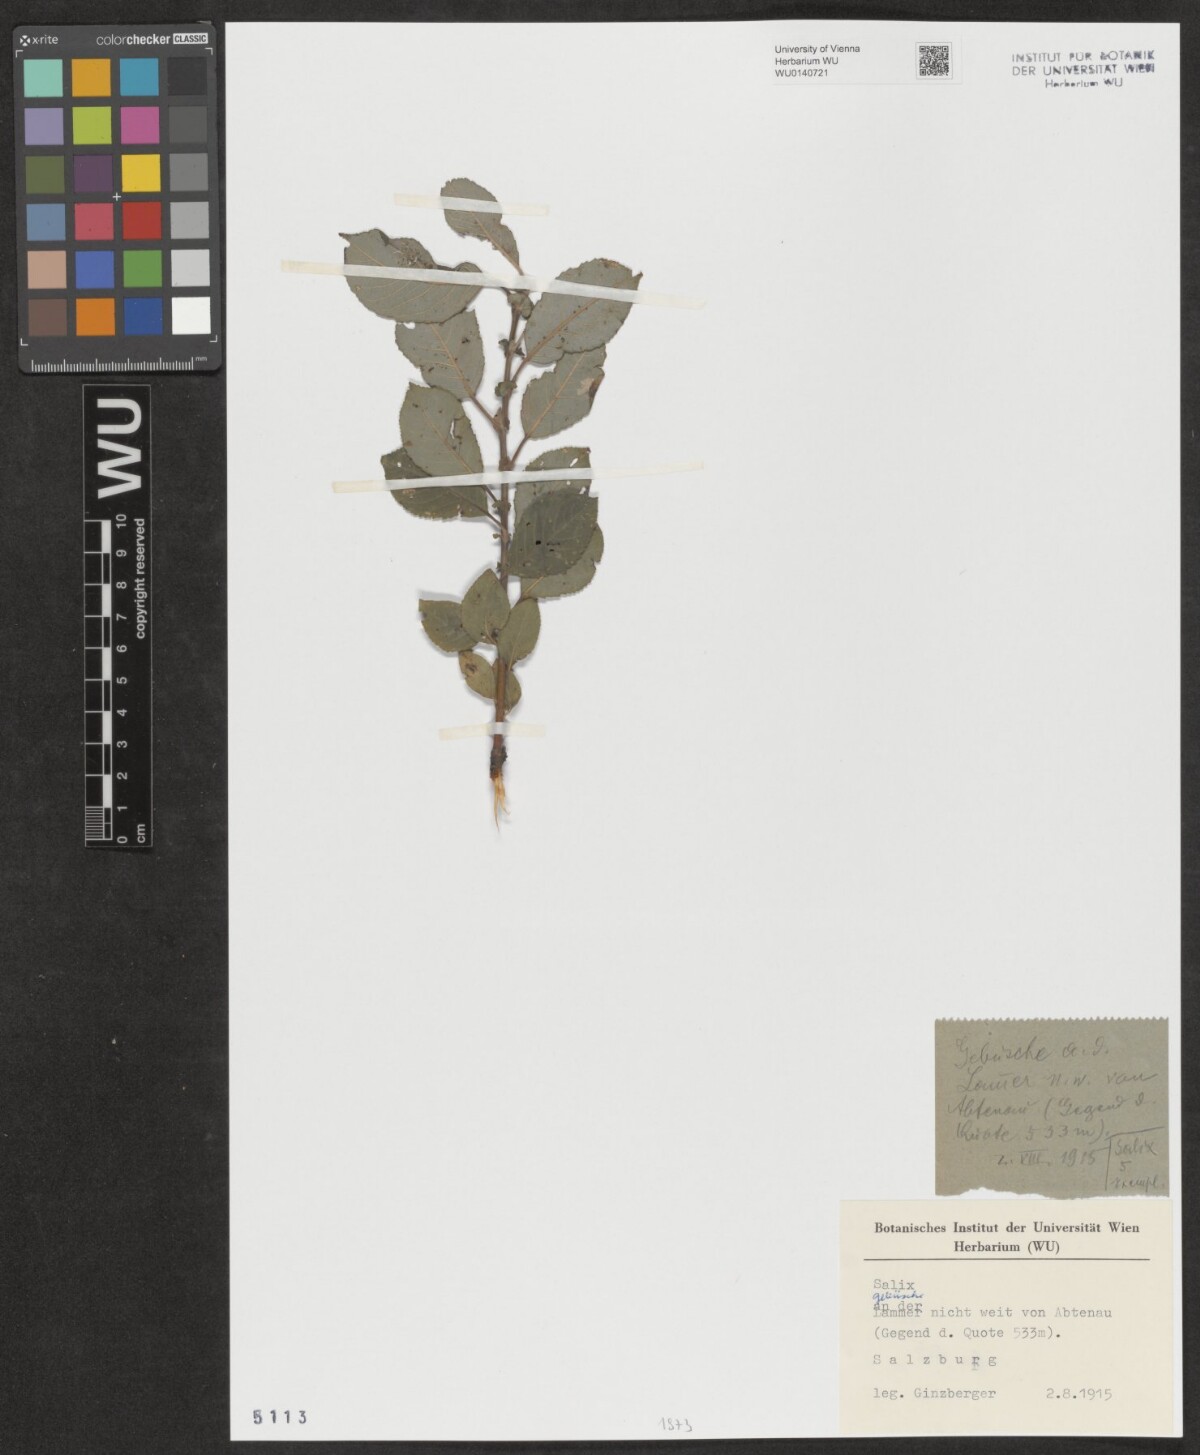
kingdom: Plantae
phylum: Tracheophyta
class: Magnoliopsida
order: Malpighiales
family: Salicaceae
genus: Salix
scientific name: Salix
